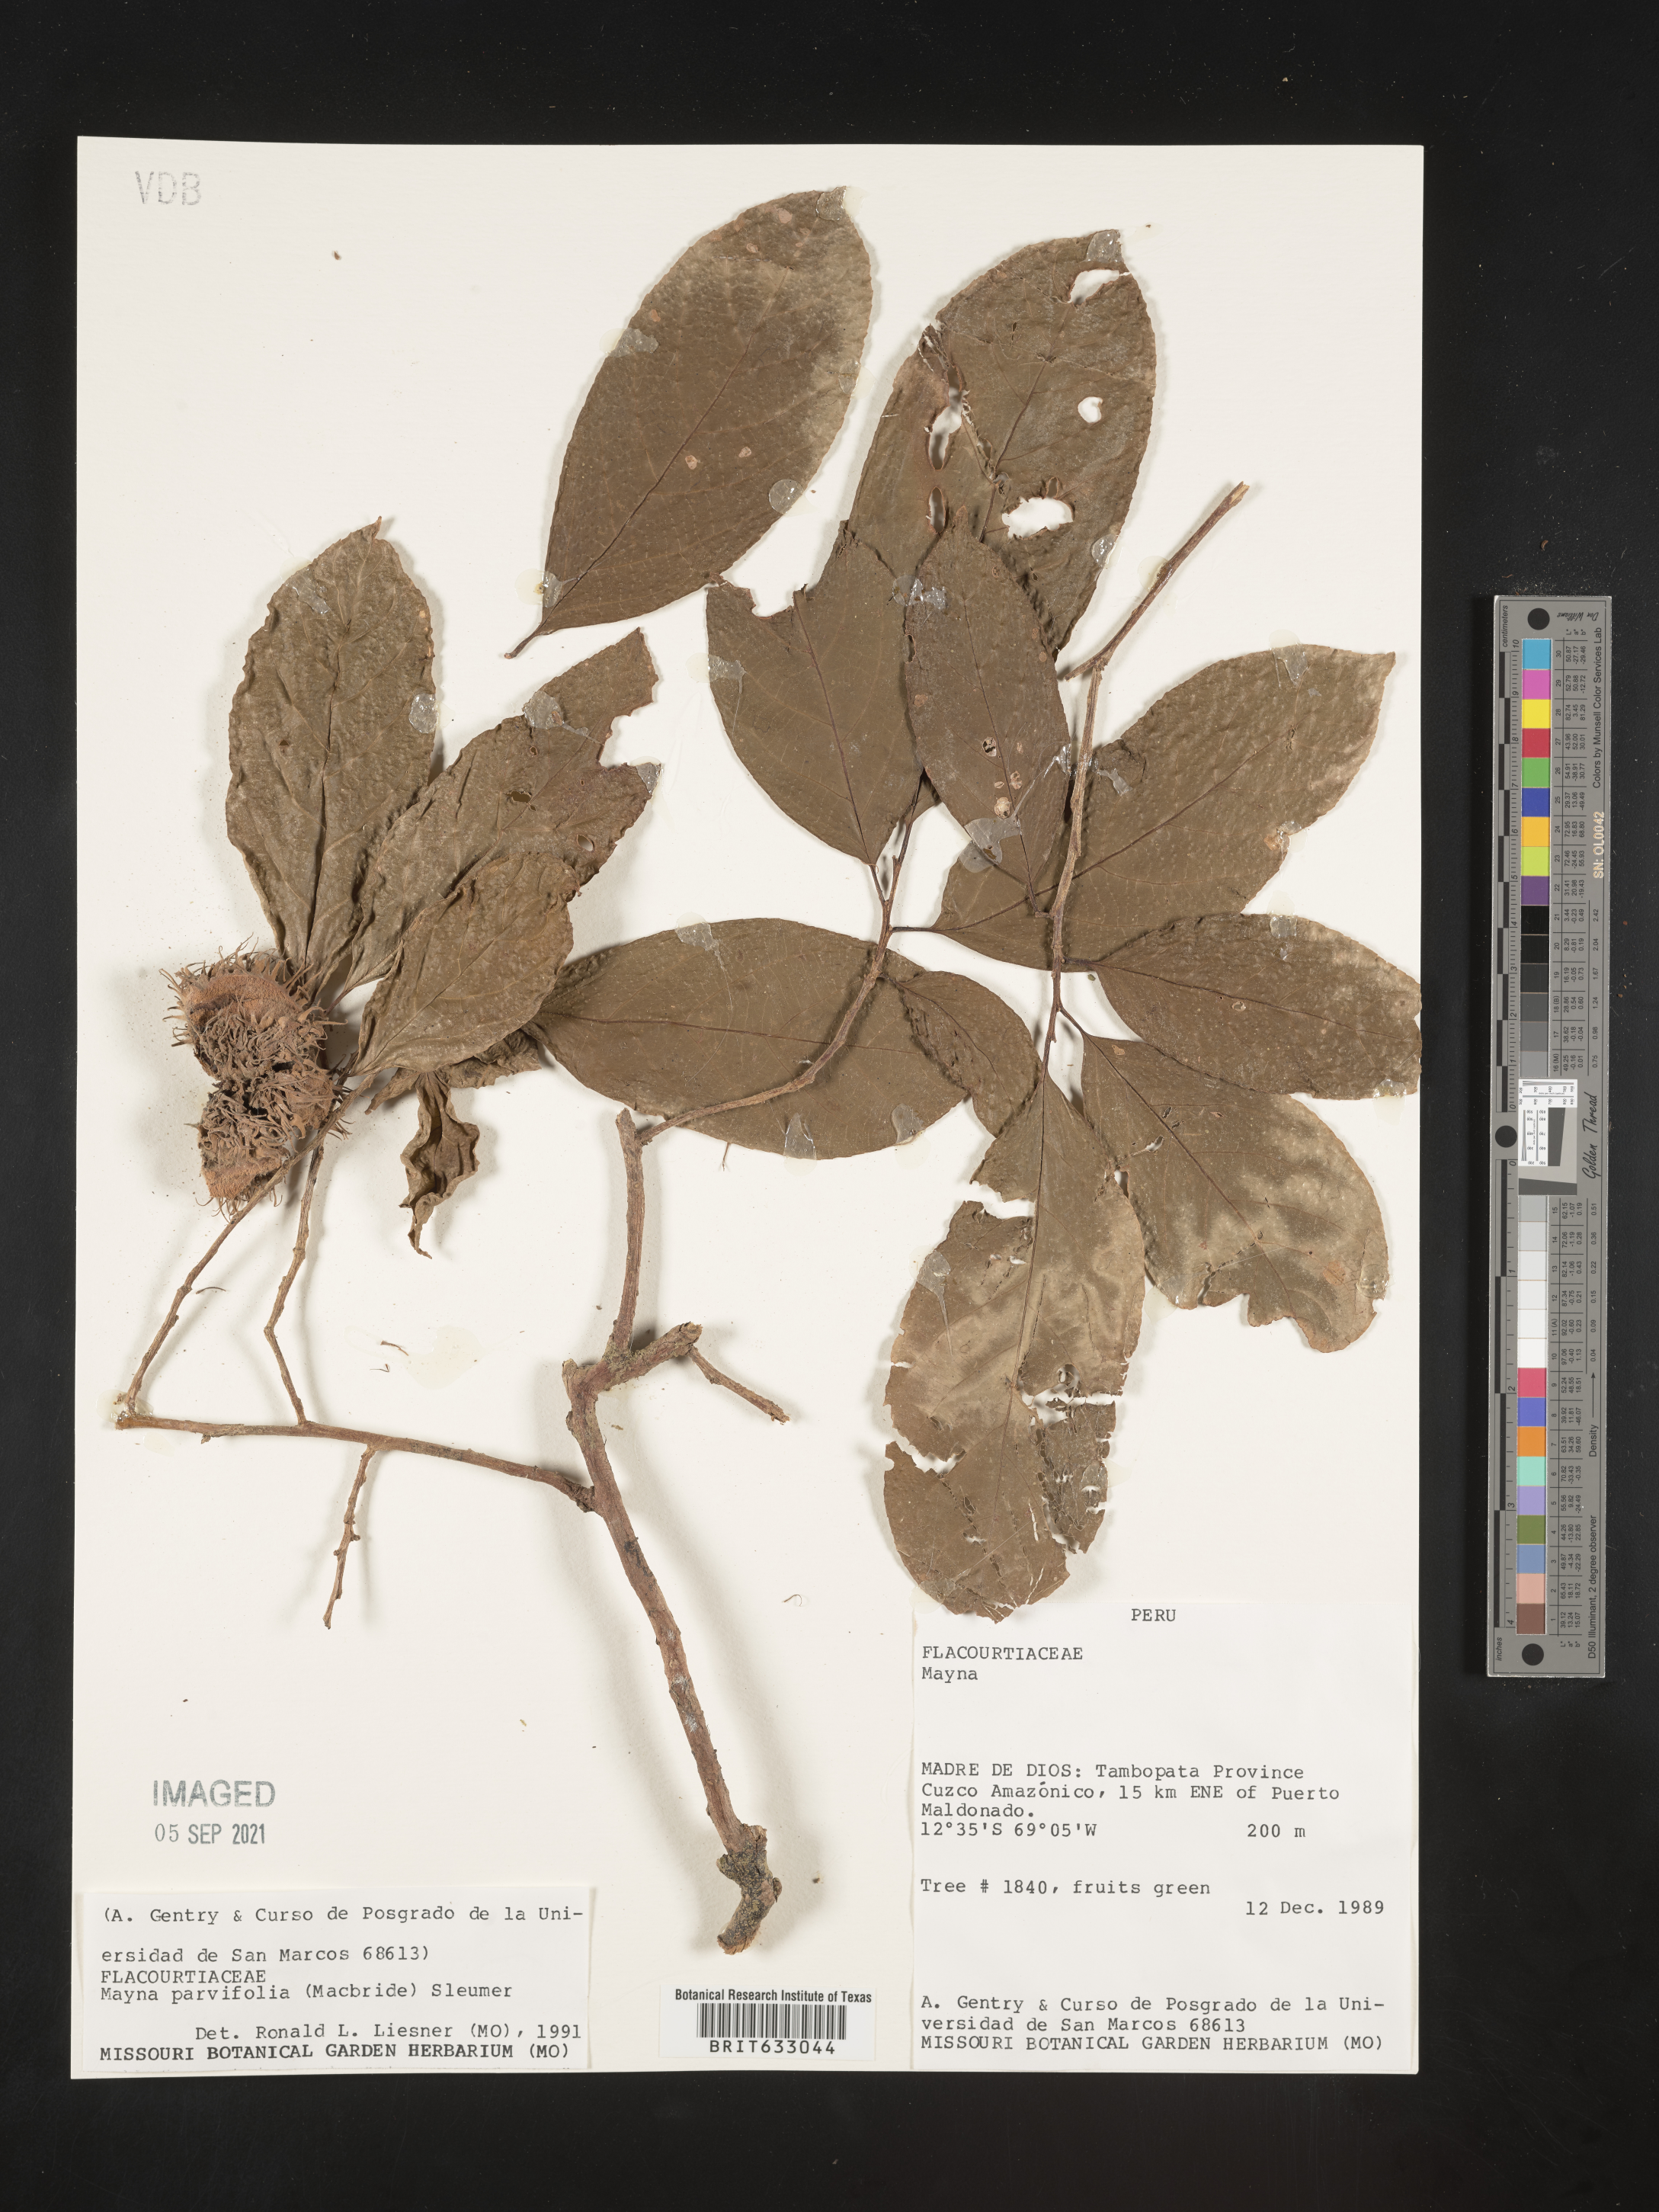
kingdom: Plantae
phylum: Tracheophyta
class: Magnoliopsida
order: Malpighiales
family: Achariaceae
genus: Mayna
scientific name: Mayna
